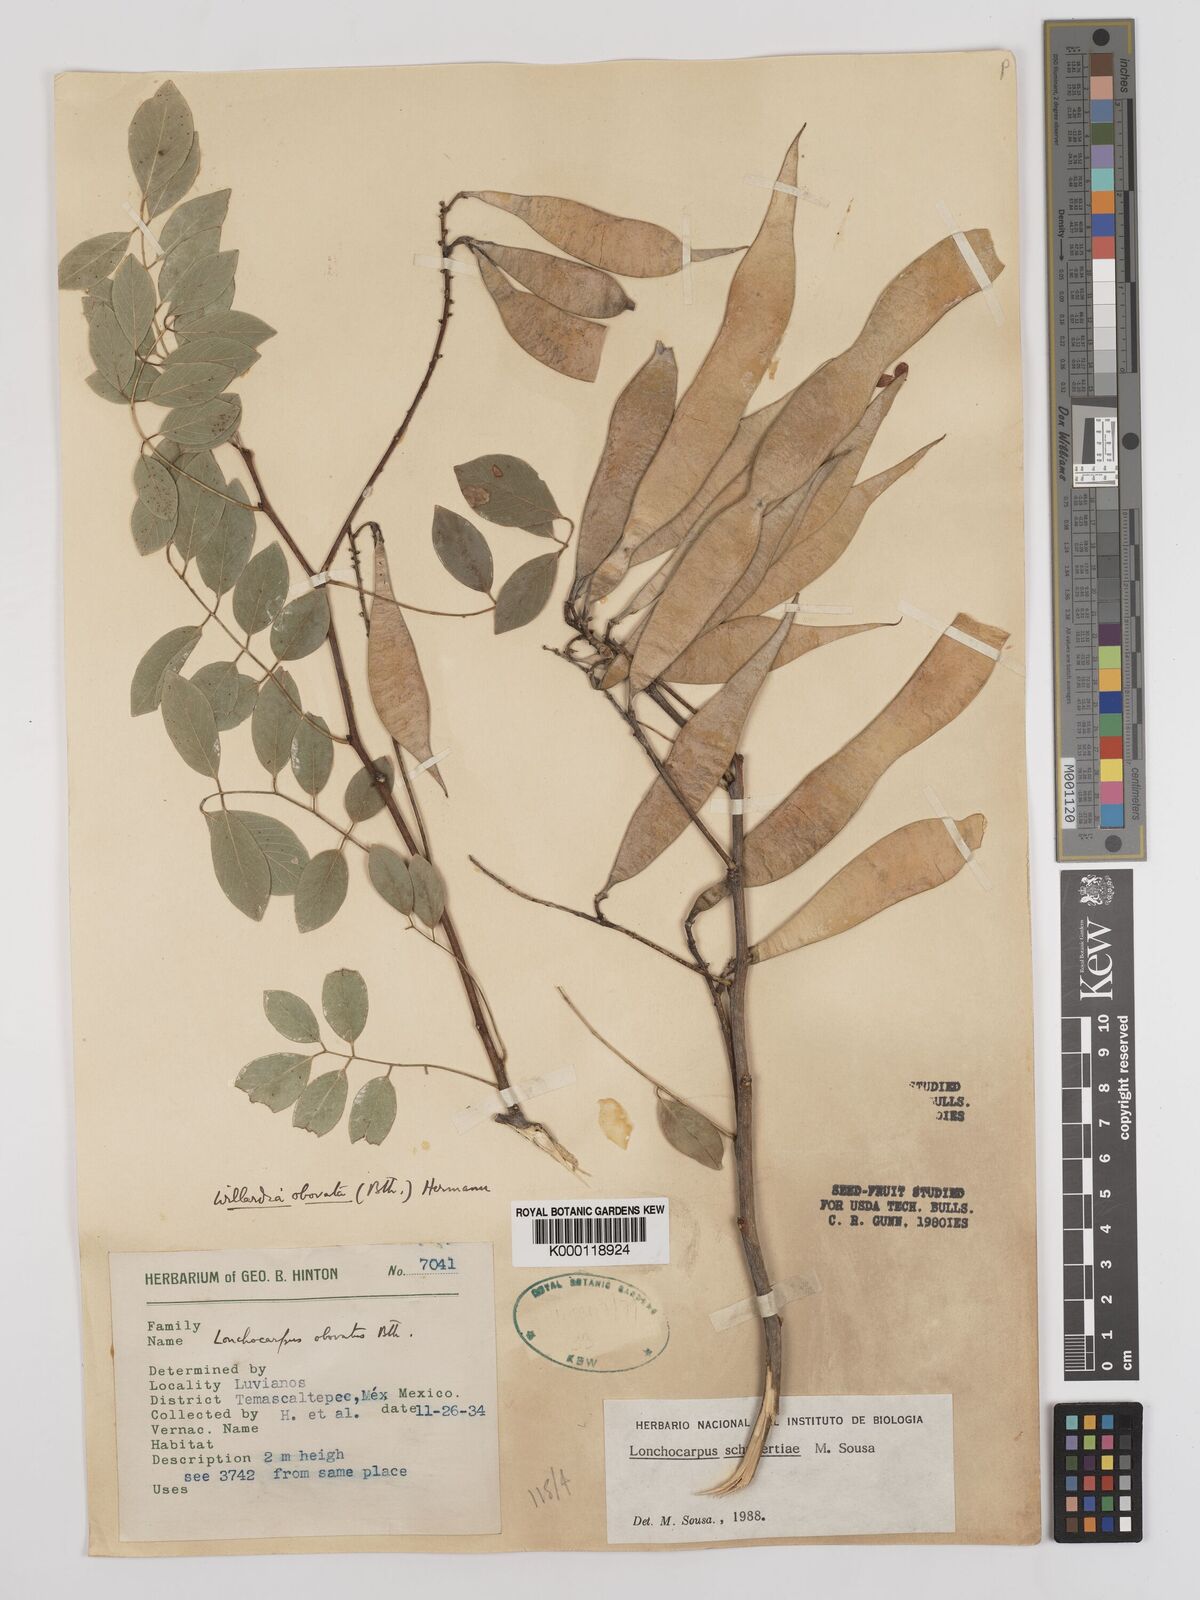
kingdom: Plantae
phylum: Tracheophyta
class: Magnoliopsida
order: Fabales
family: Fabaceae
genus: Lonchocarpus
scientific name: Lonchocarpus schubertiae
